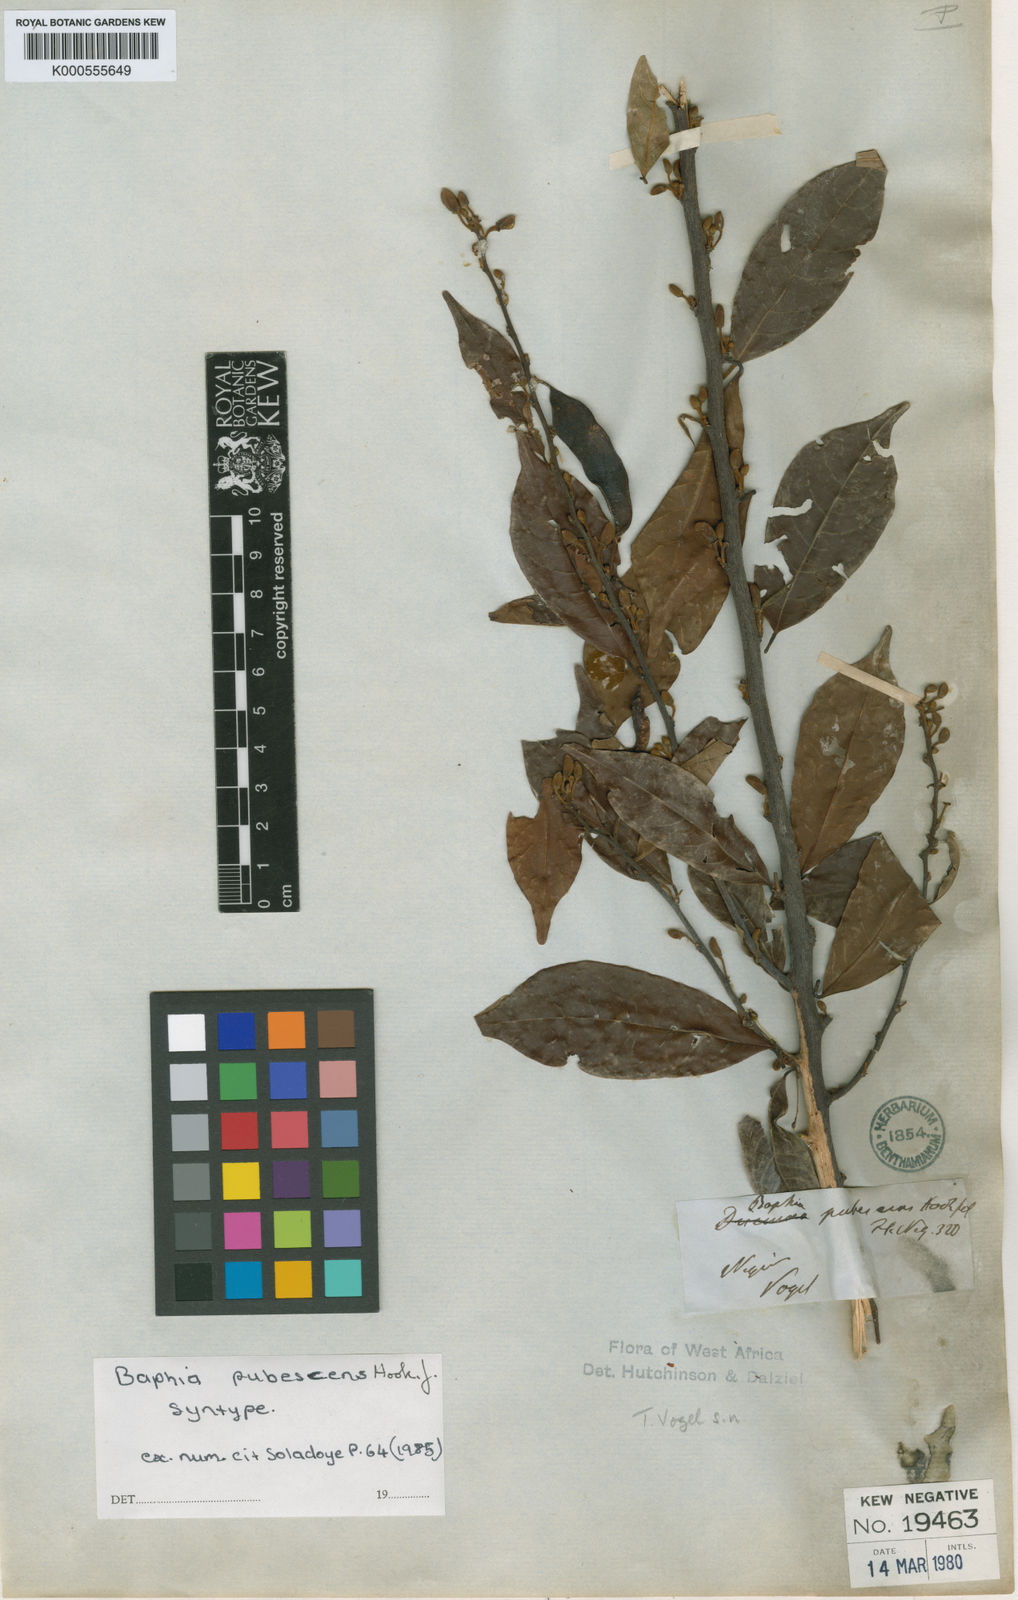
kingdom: Plantae
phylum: Tracheophyta
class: Magnoliopsida
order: Fabales
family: Fabaceae
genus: Baphia
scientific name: Baphia pubescens
